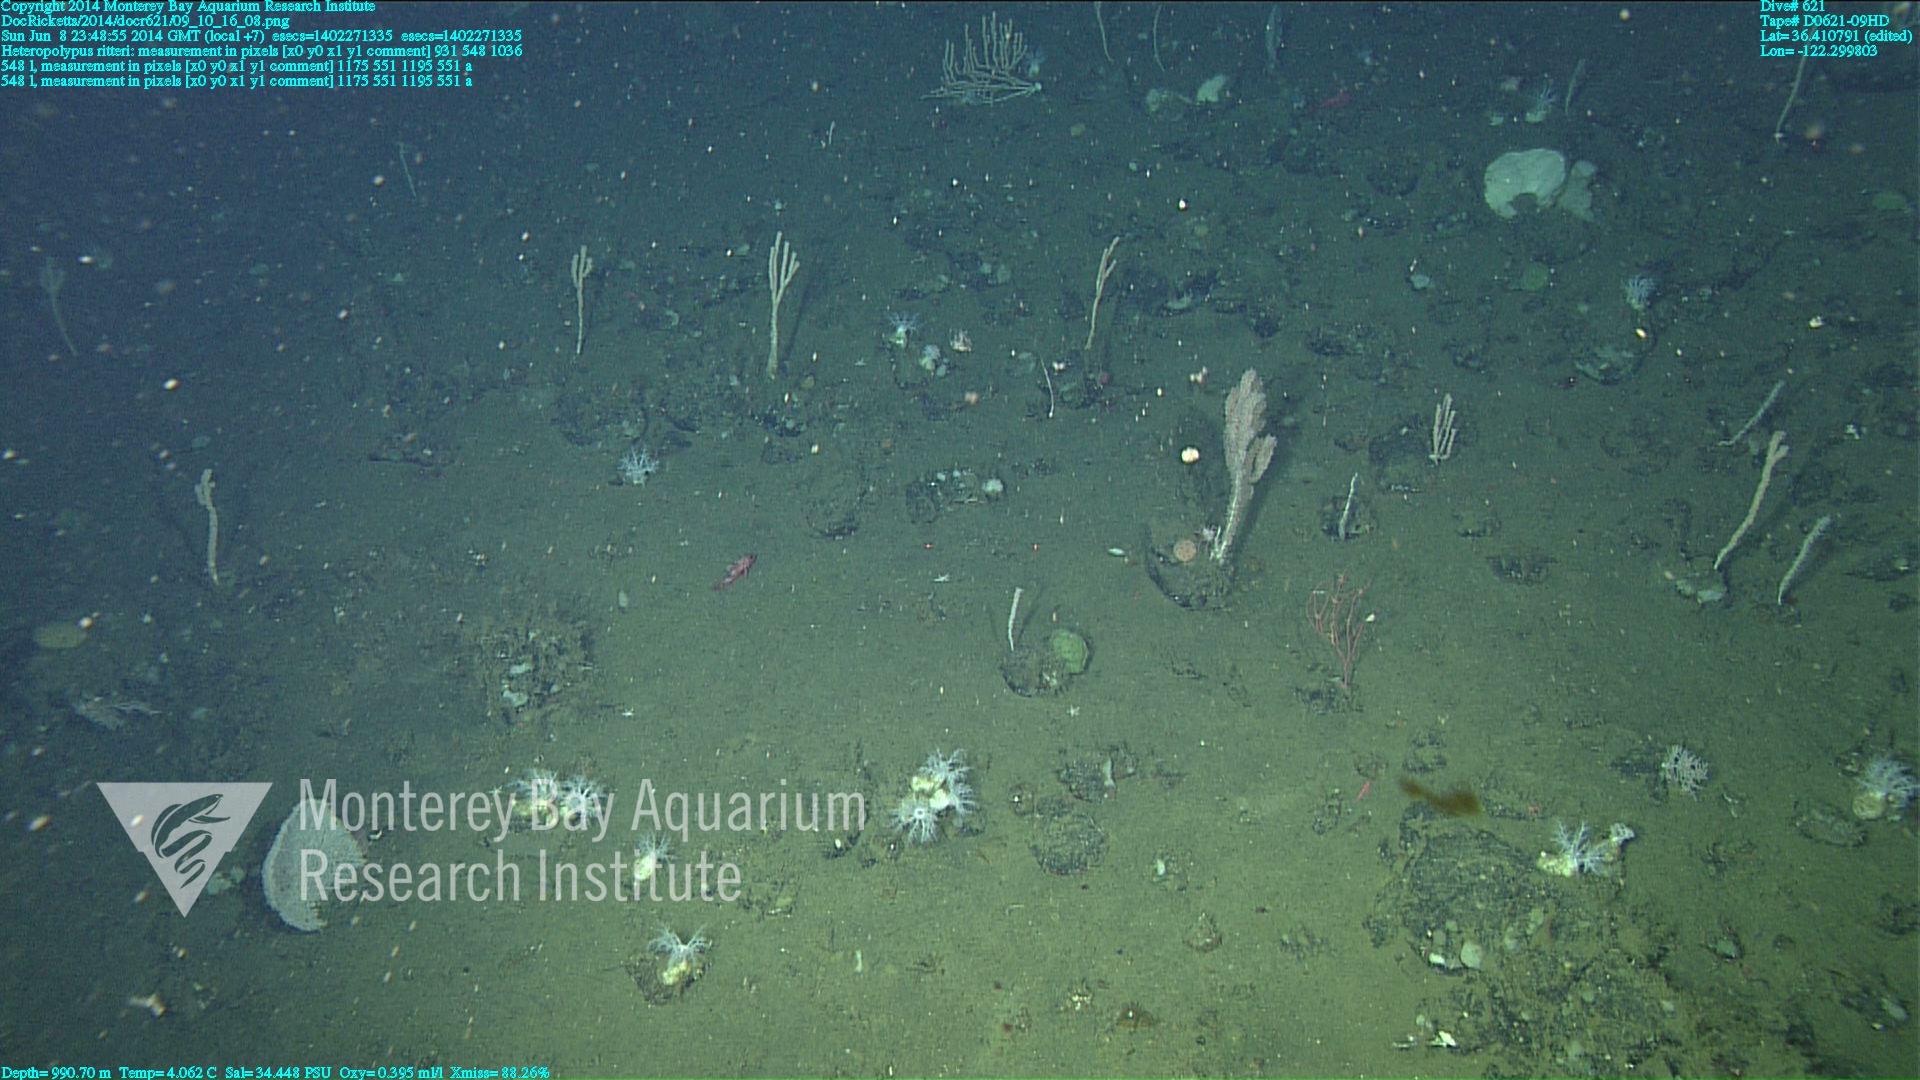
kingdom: Animalia
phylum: Cnidaria
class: Anthozoa
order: Scleralcyonacea
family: Coralliidae
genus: Heteropolypus
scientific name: Heteropolypus ritteri
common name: Ritter's soft coral
